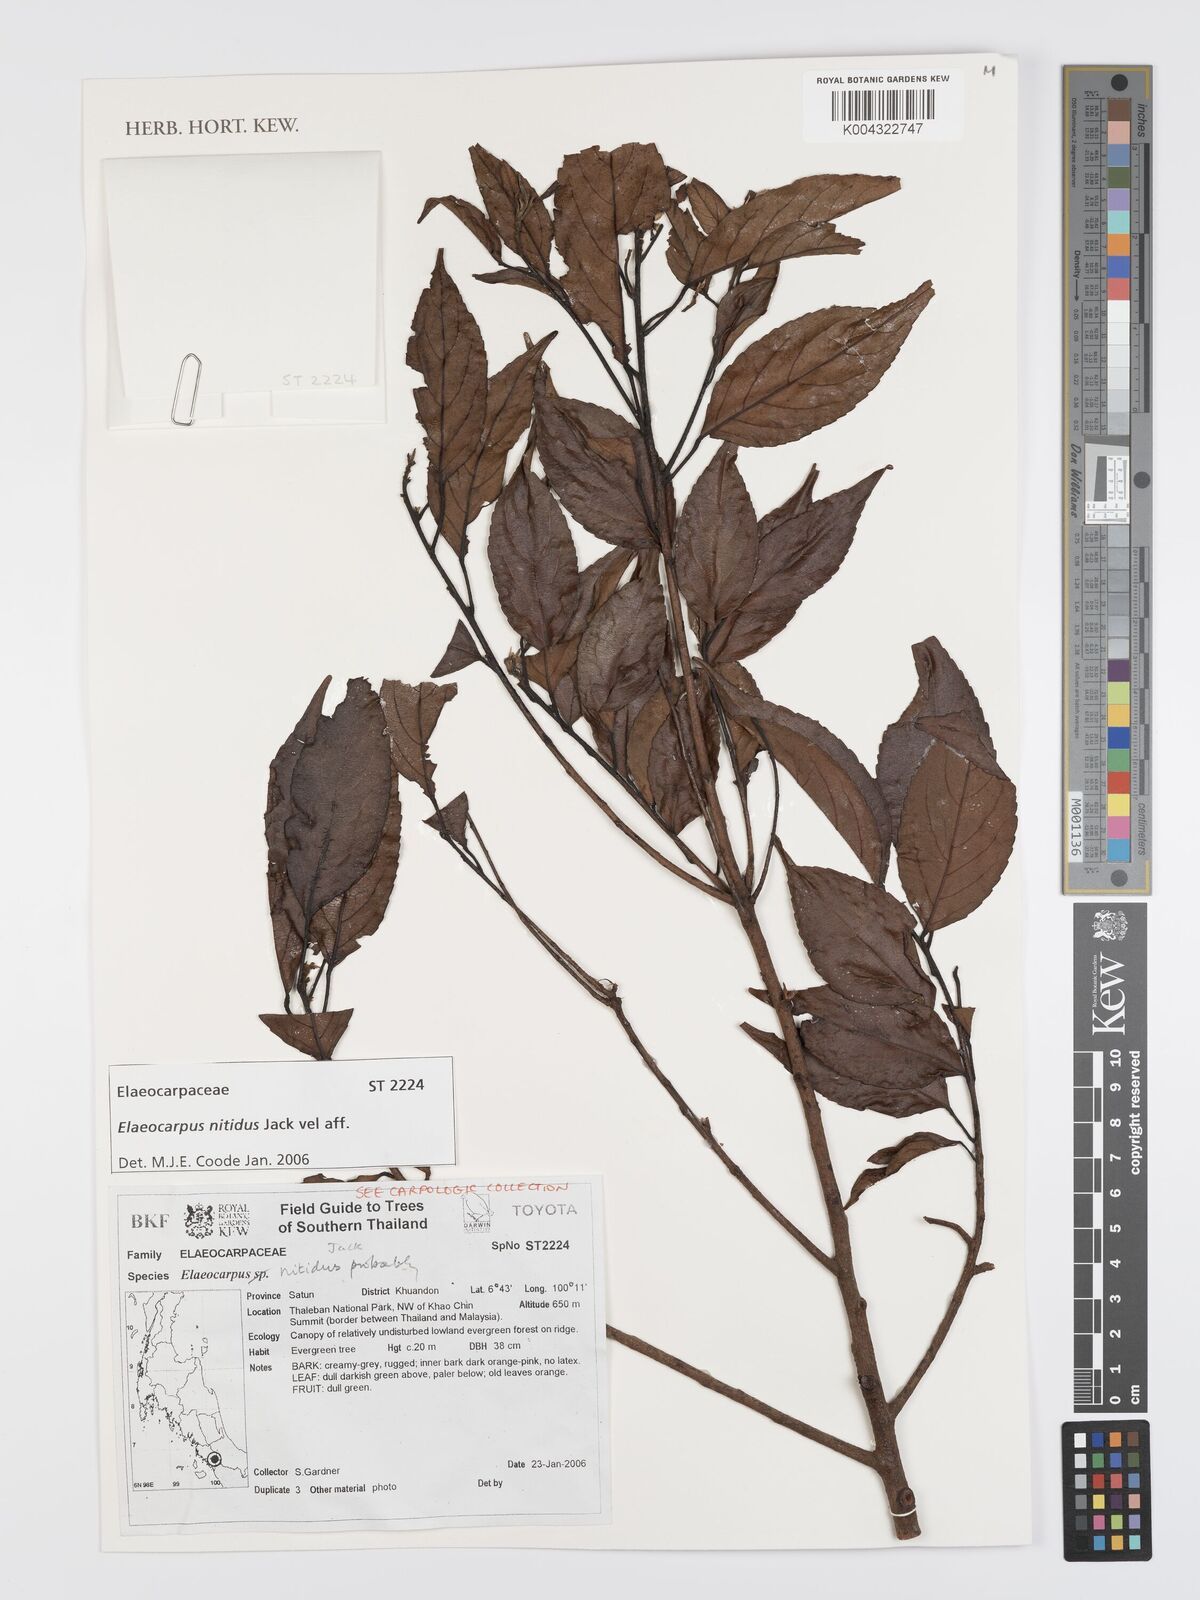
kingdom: Plantae
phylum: Tracheophyta
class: Magnoliopsida
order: Oxalidales
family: Elaeocarpaceae
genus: Elaeocarpus
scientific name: Elaeocarpus nitidus
